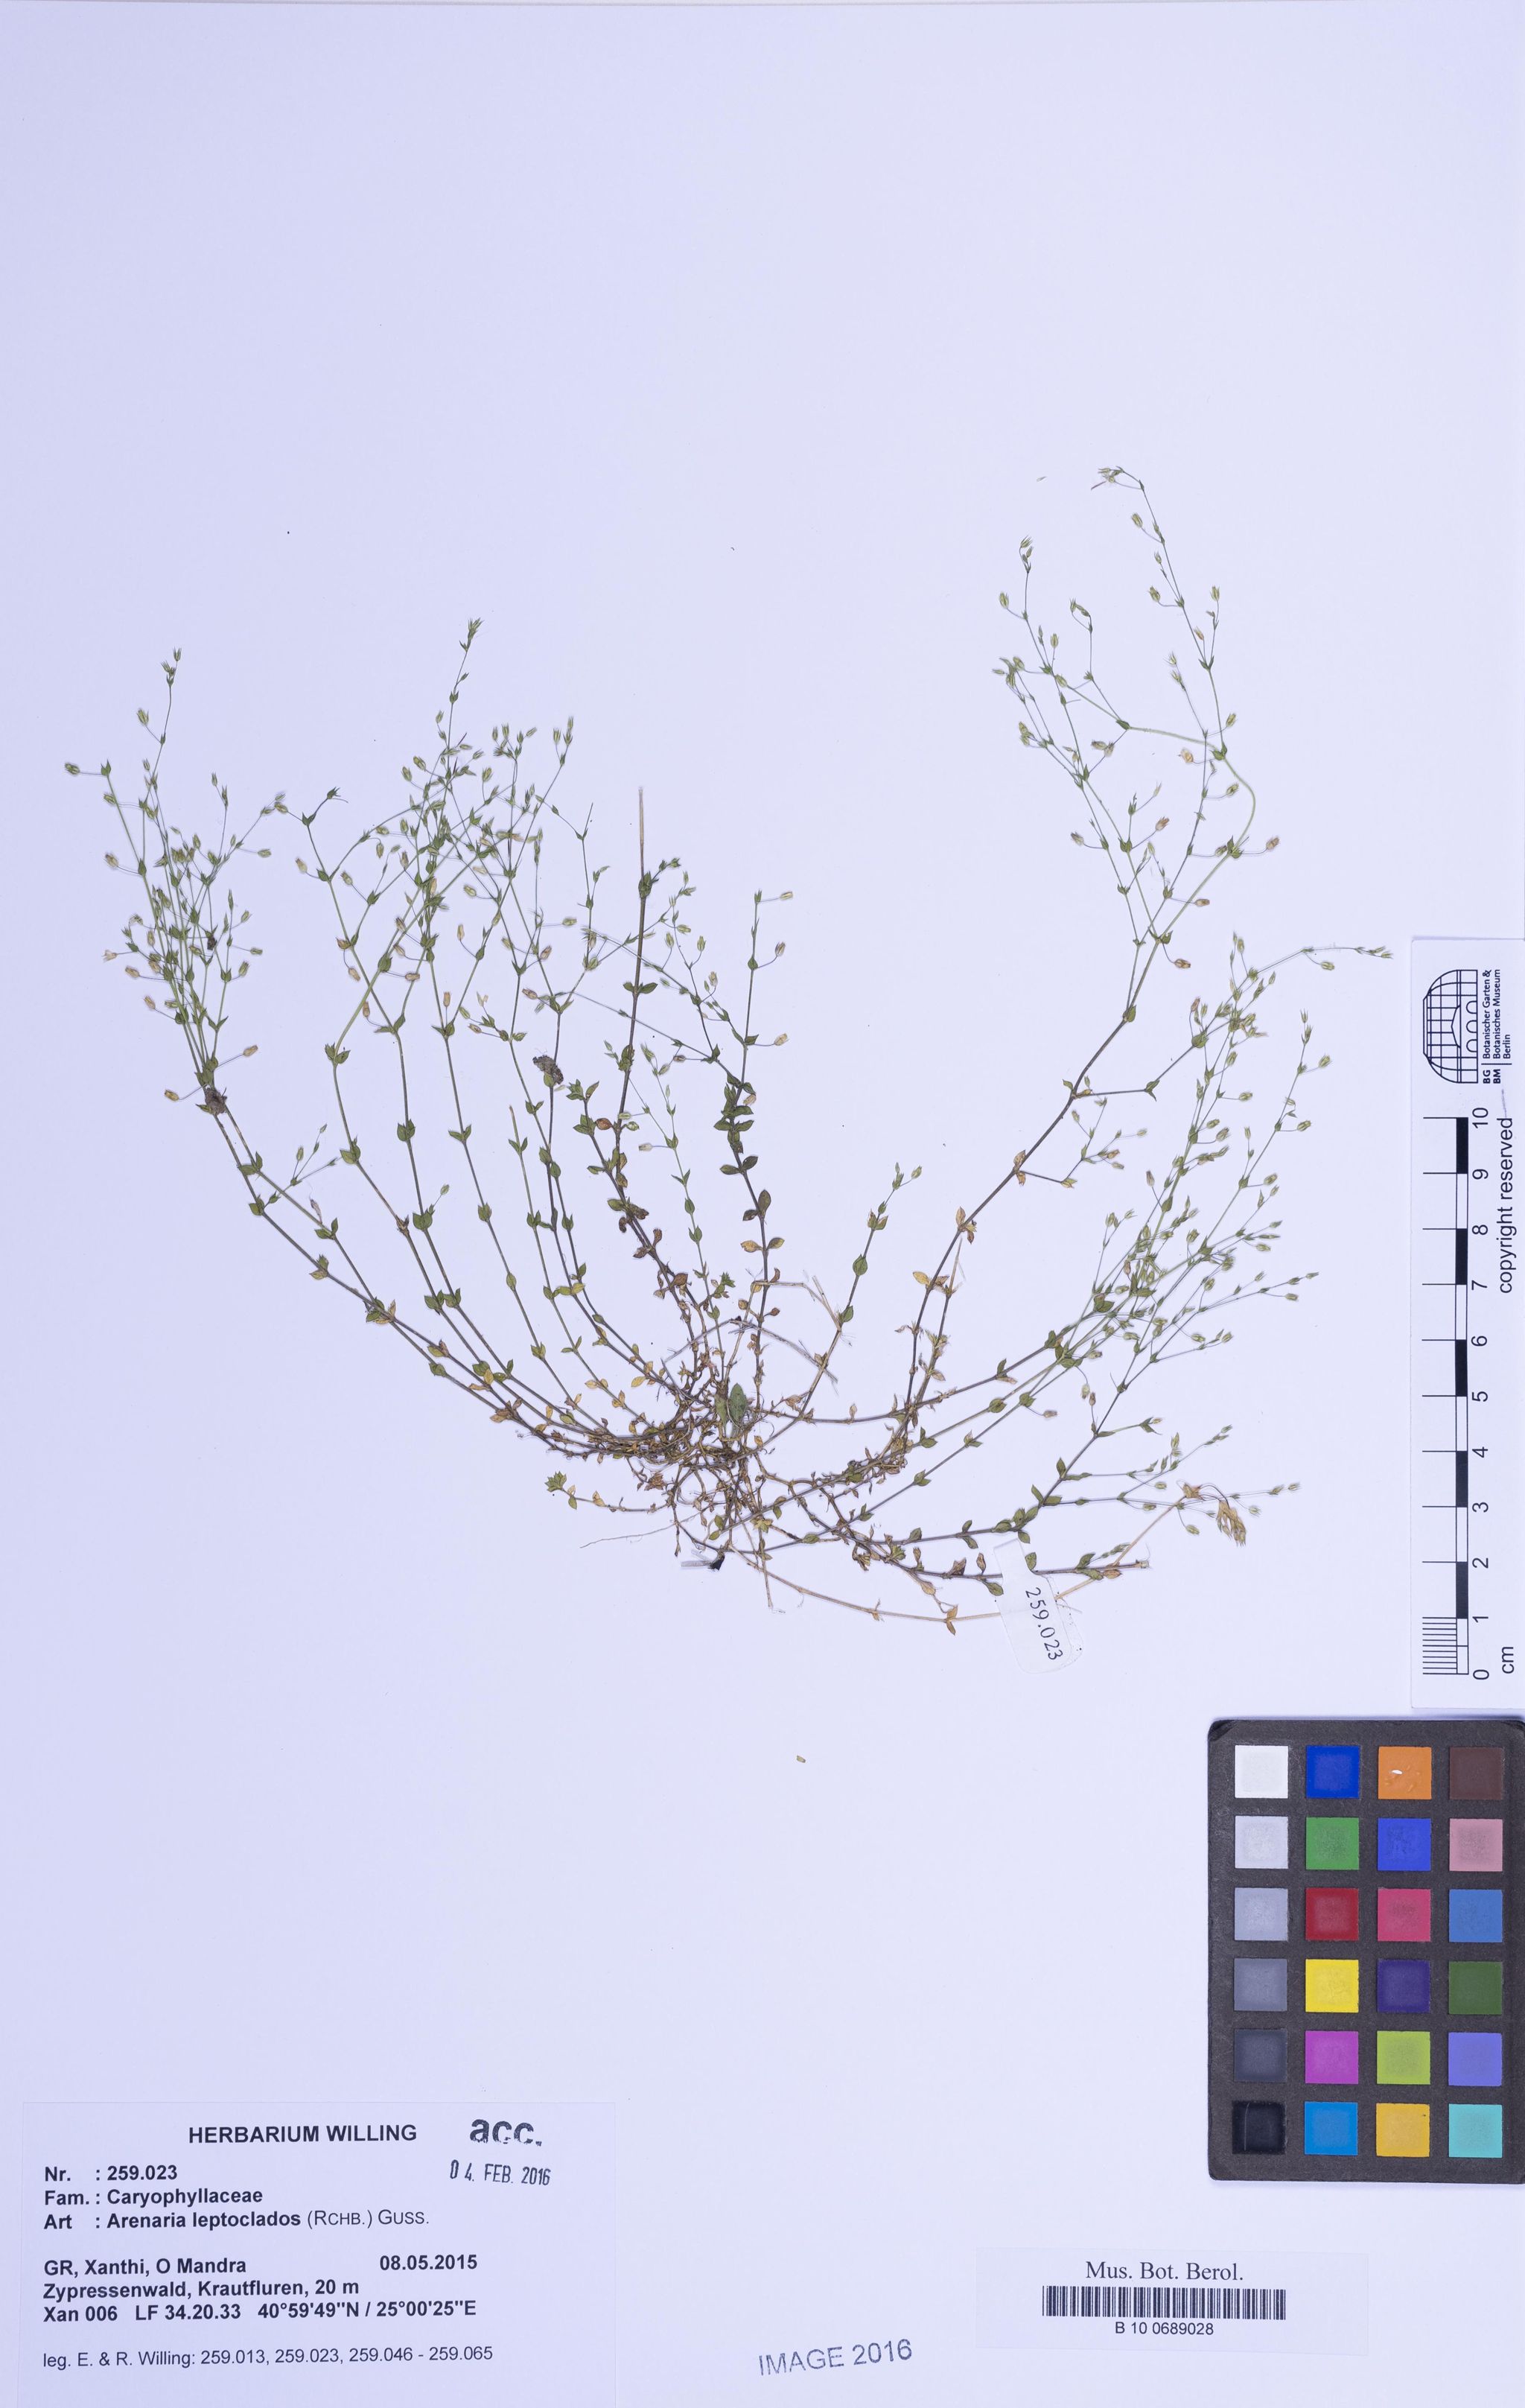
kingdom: Plantae
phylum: Tracheophyta
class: Magnoliopsida
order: Caryophyllales
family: Caryophyllaceae
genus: Arenaria
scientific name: Arenaria leptoclados
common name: Thyme-leaved sandwort
